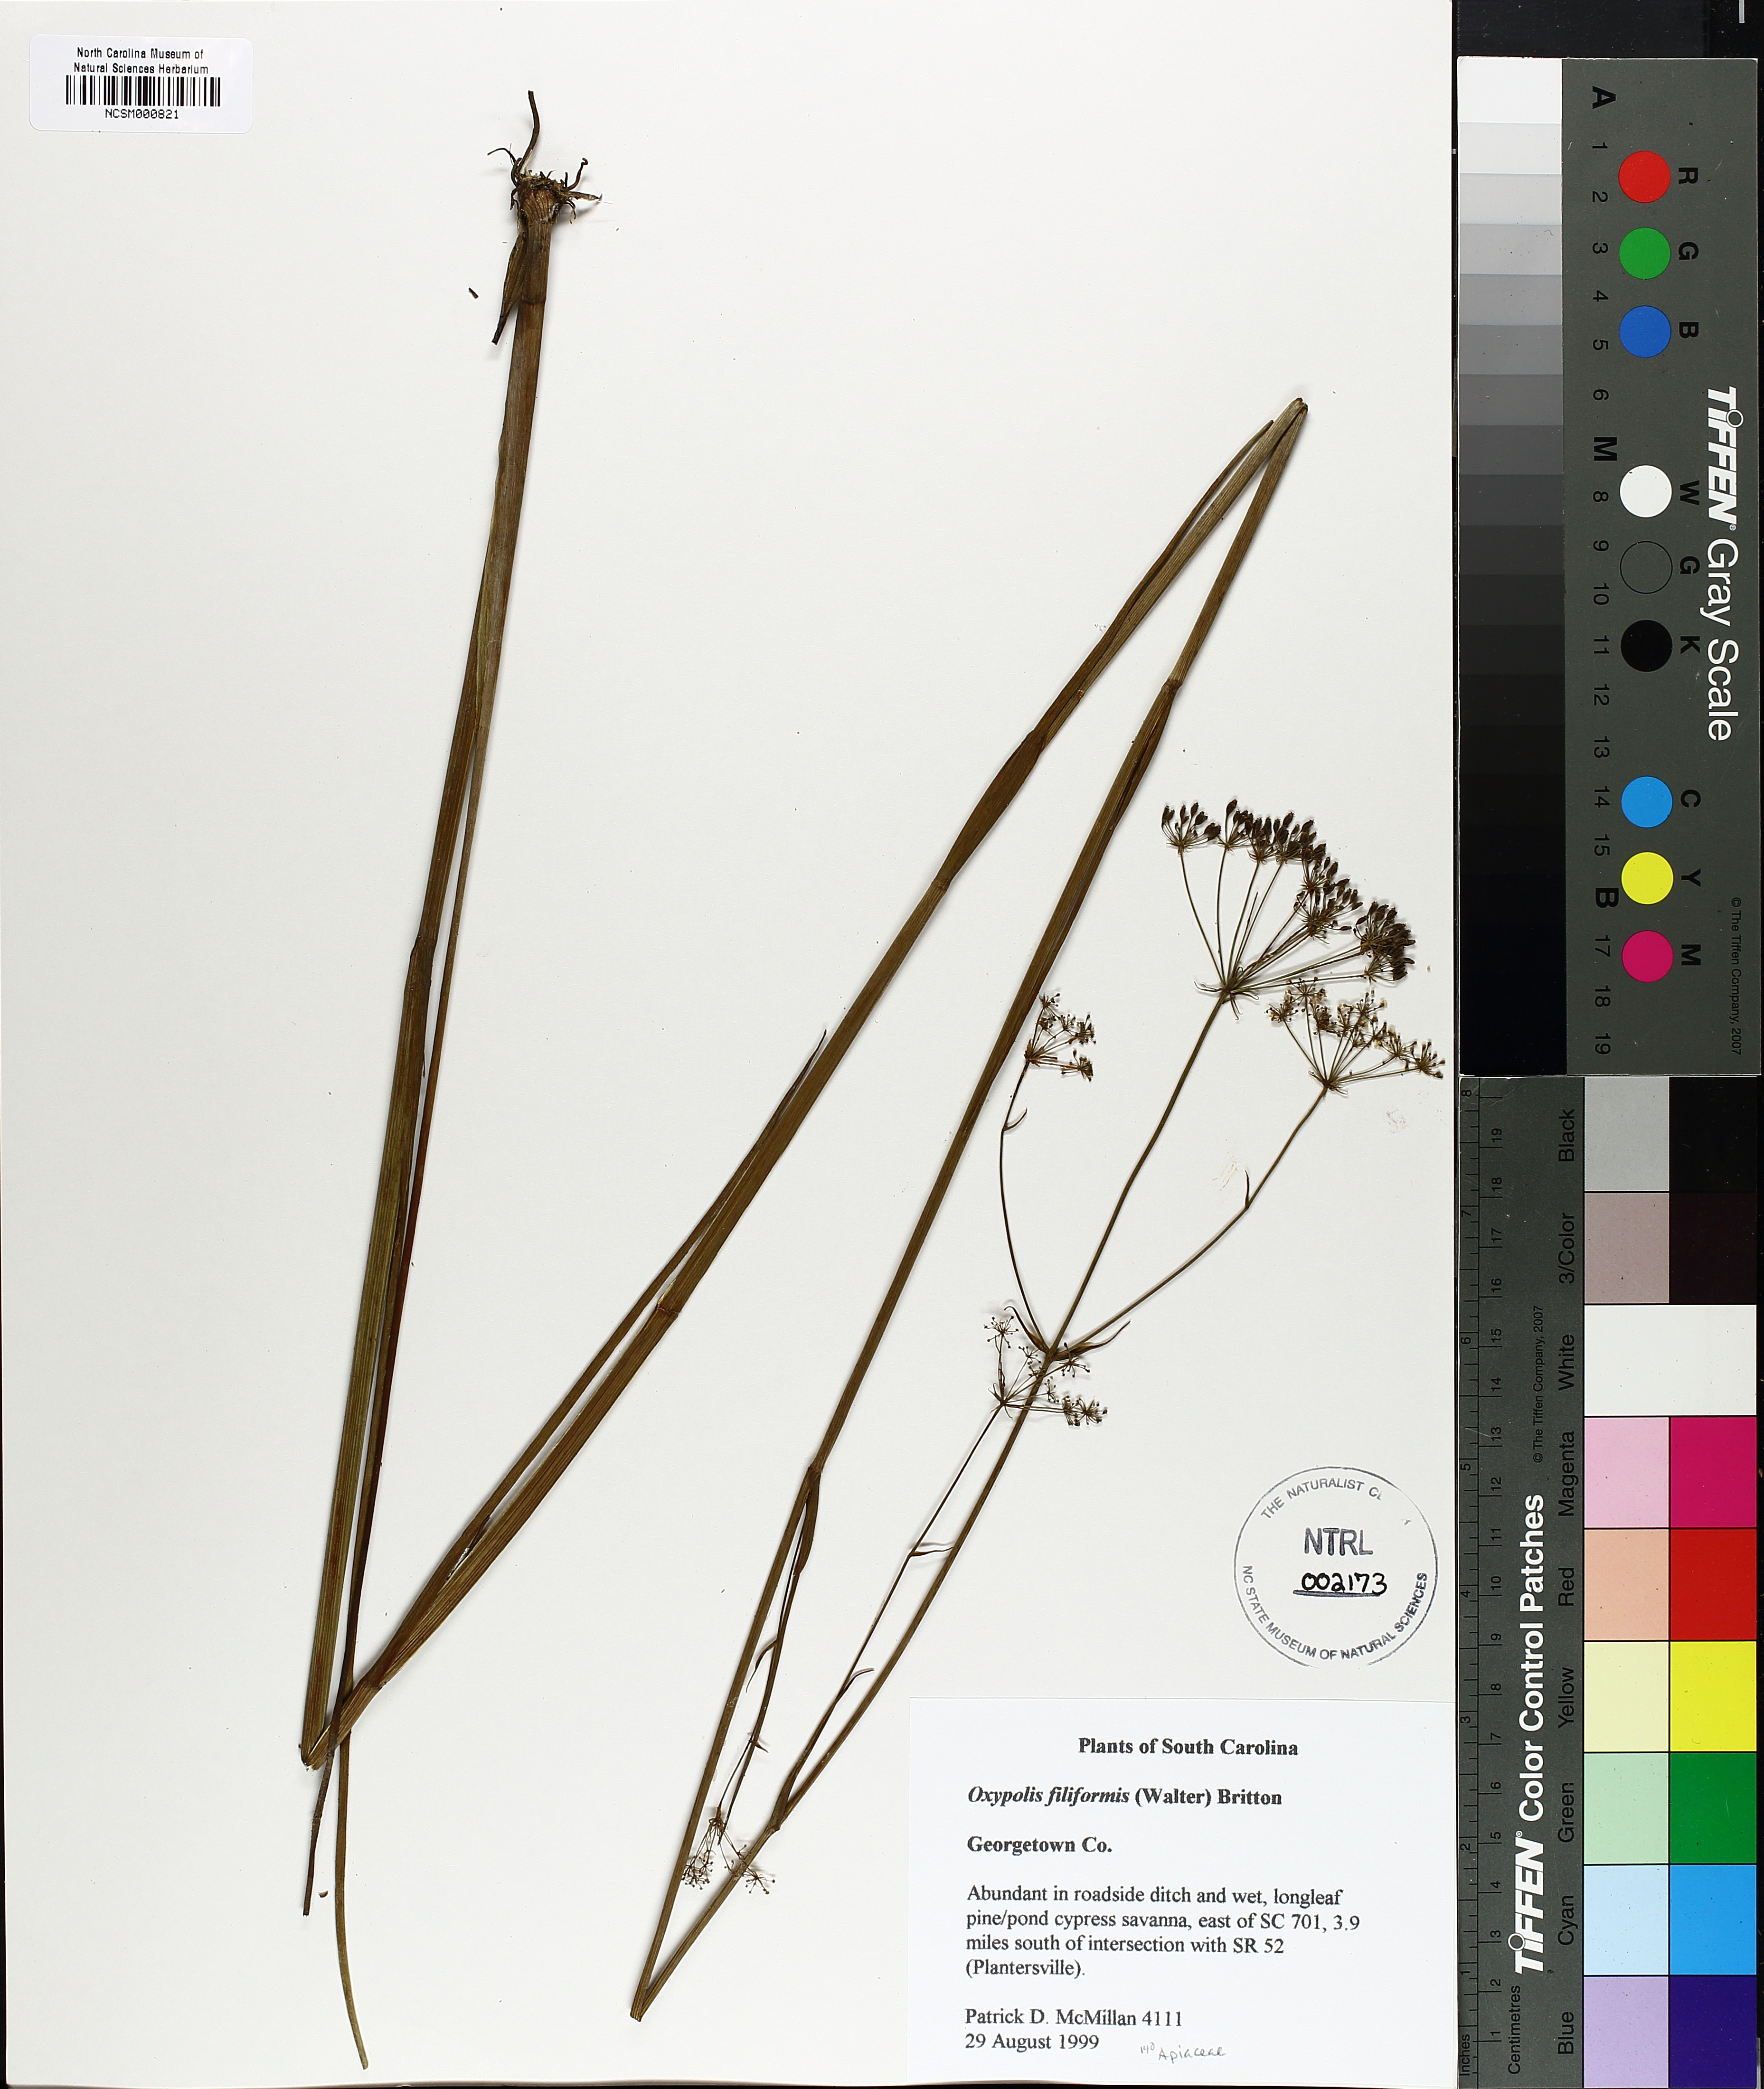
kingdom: Plantae
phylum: Tracheophyta
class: Magnoliopsida
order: Apiales
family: Apiaceae
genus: Tiedemannia
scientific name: Tiedemannia filiformis
